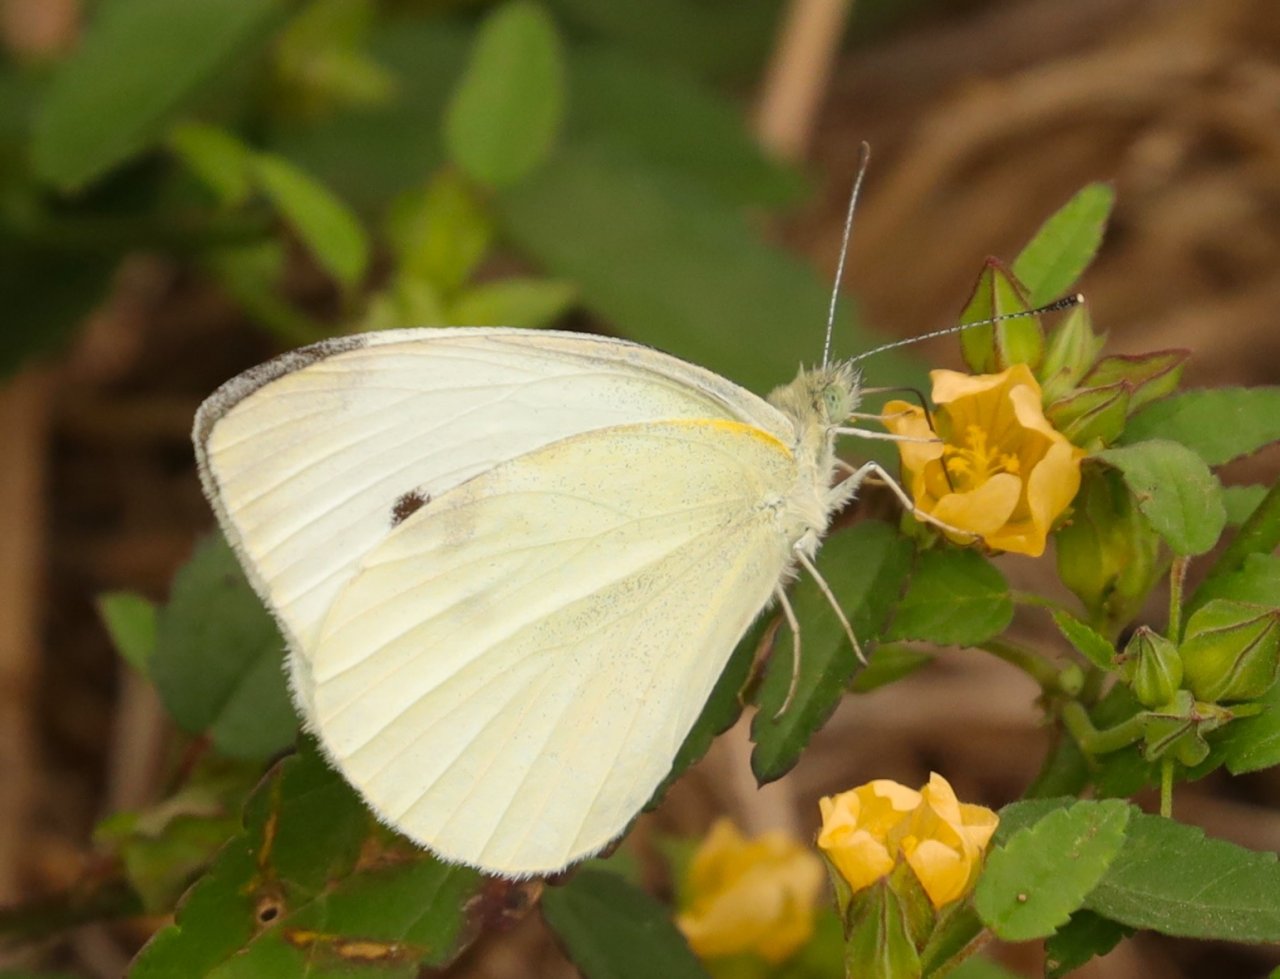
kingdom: Animalia
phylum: Arthropoda
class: Insecta
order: Lepidoptera
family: Pieridae
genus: Pieris
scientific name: Pieris rapae
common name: Cabbage White
